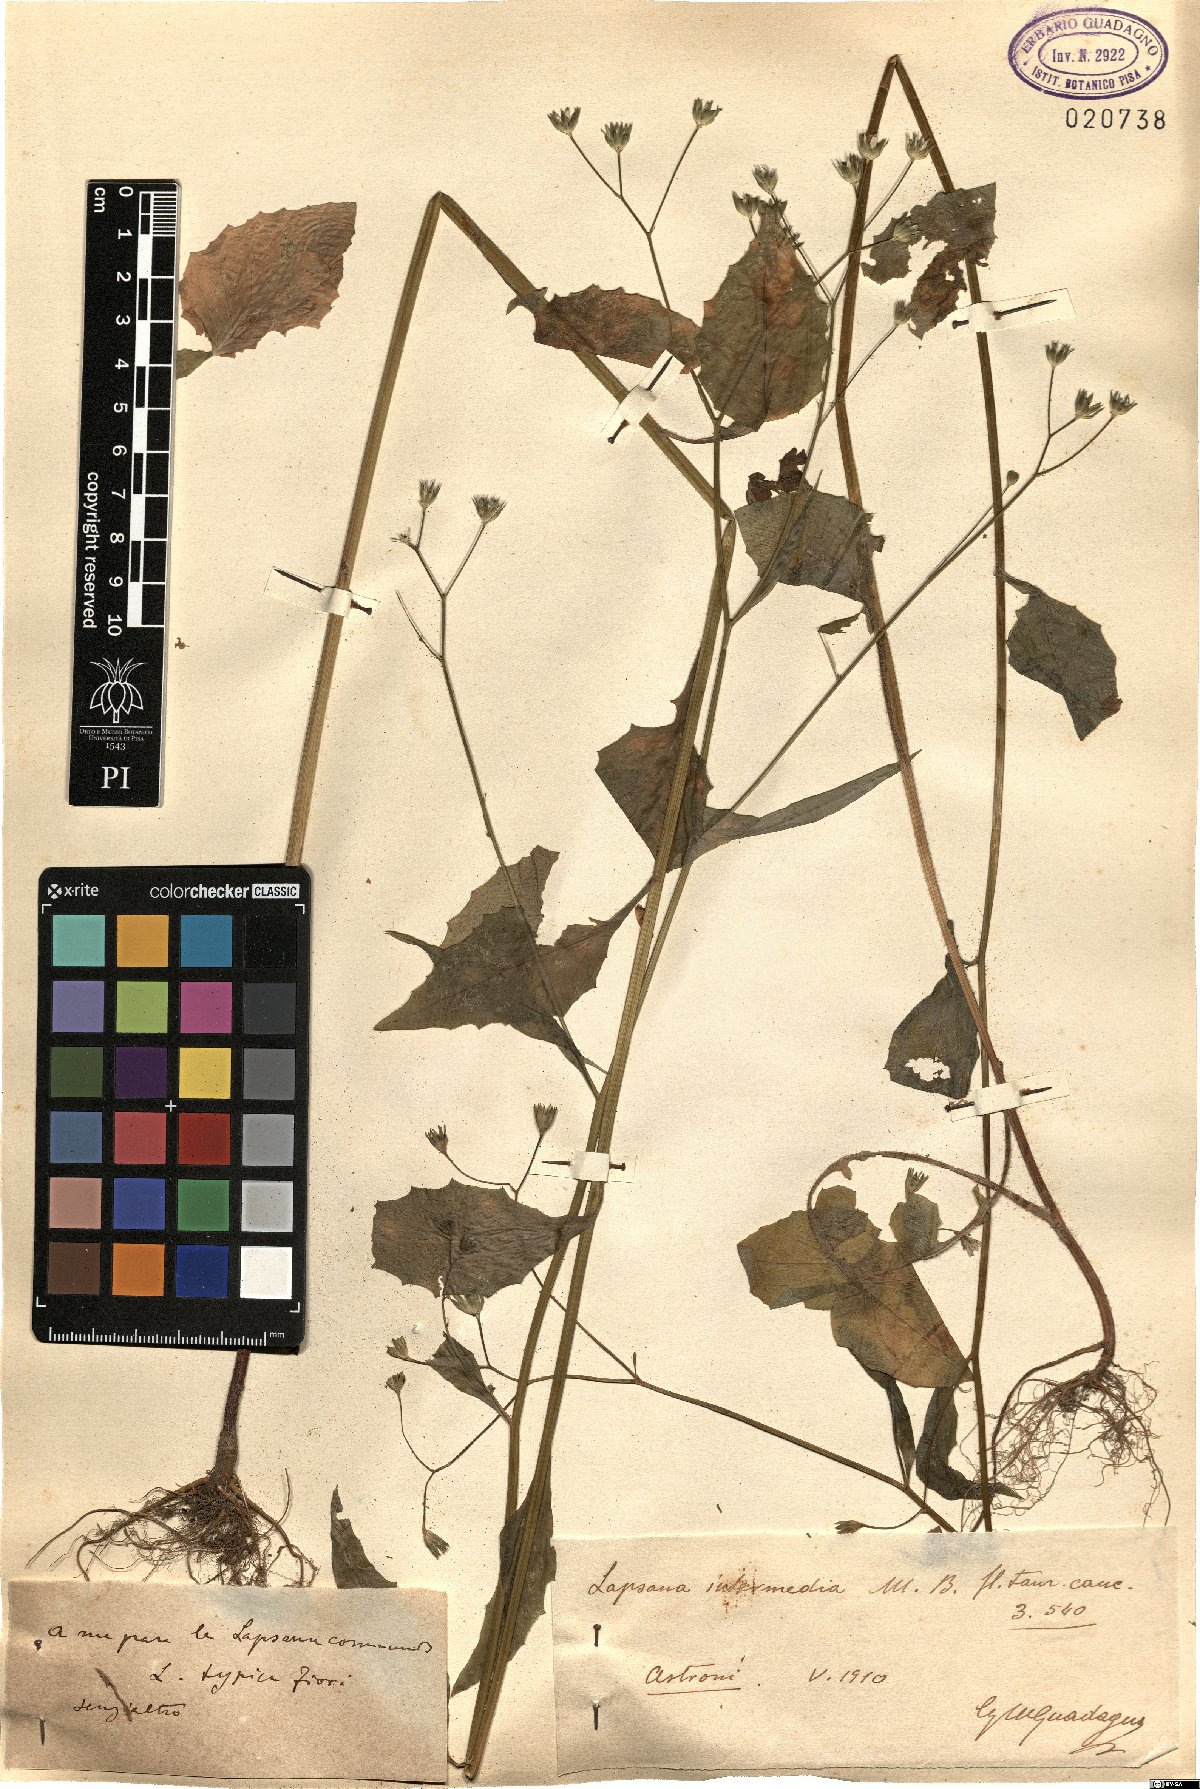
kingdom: Plantae
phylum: Tracheophyta
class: Magnoliopsida
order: Asterales
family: Asteraceae
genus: Lapsana
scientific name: Lapsana communis
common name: Nipplewort
